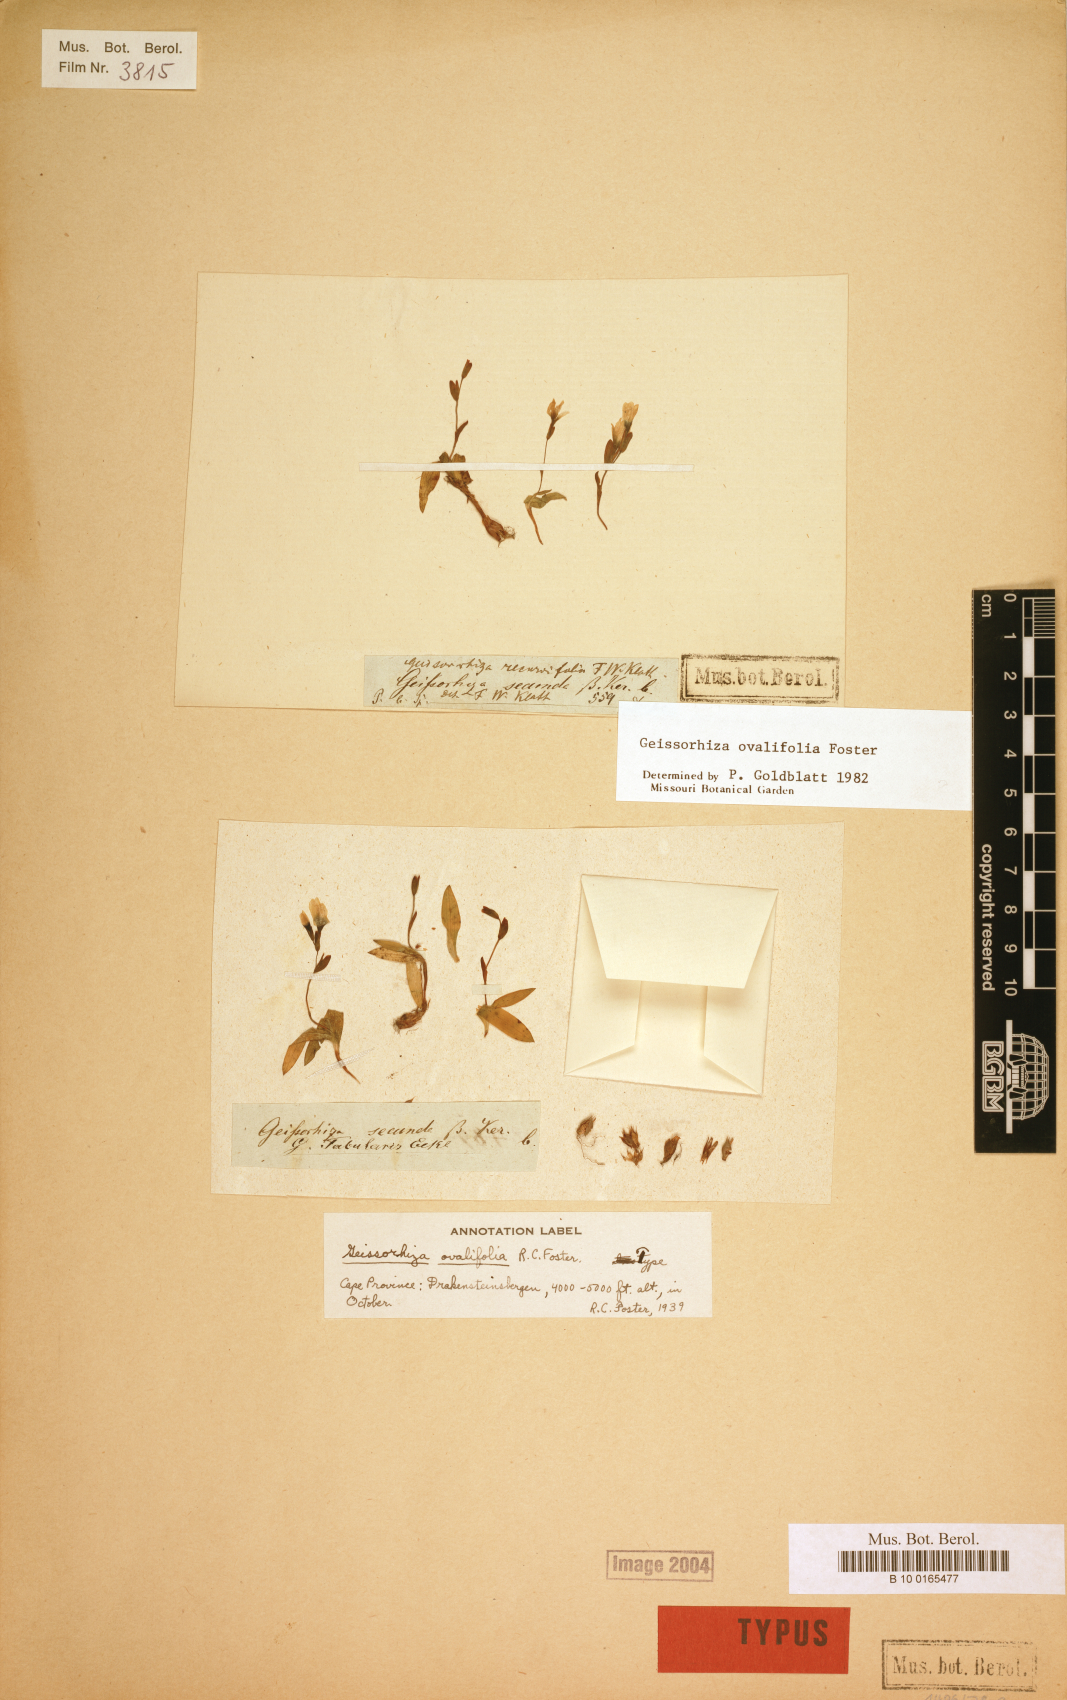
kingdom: Plantae
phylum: Tracheophyta
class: Liliopsida
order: Asparagales
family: Iridaceae
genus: Geissorhiza
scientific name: Geissorhiza ovalifolia
